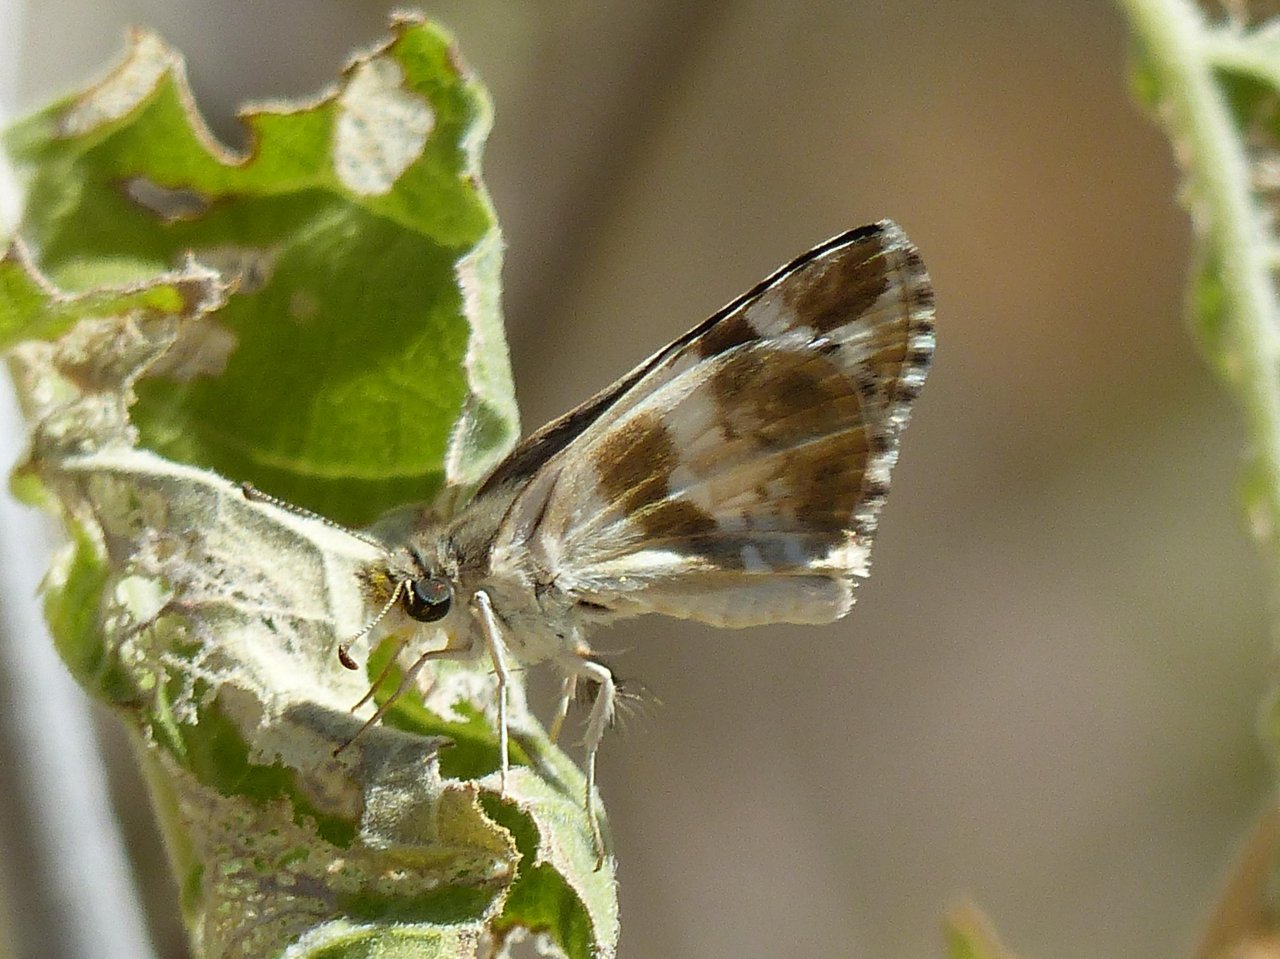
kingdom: Animalia
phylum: Arthropoda
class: Insecta
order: Lepidoptera
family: Hesperiidae
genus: Heliopyrgus
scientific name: Heliopyrgus domicella
